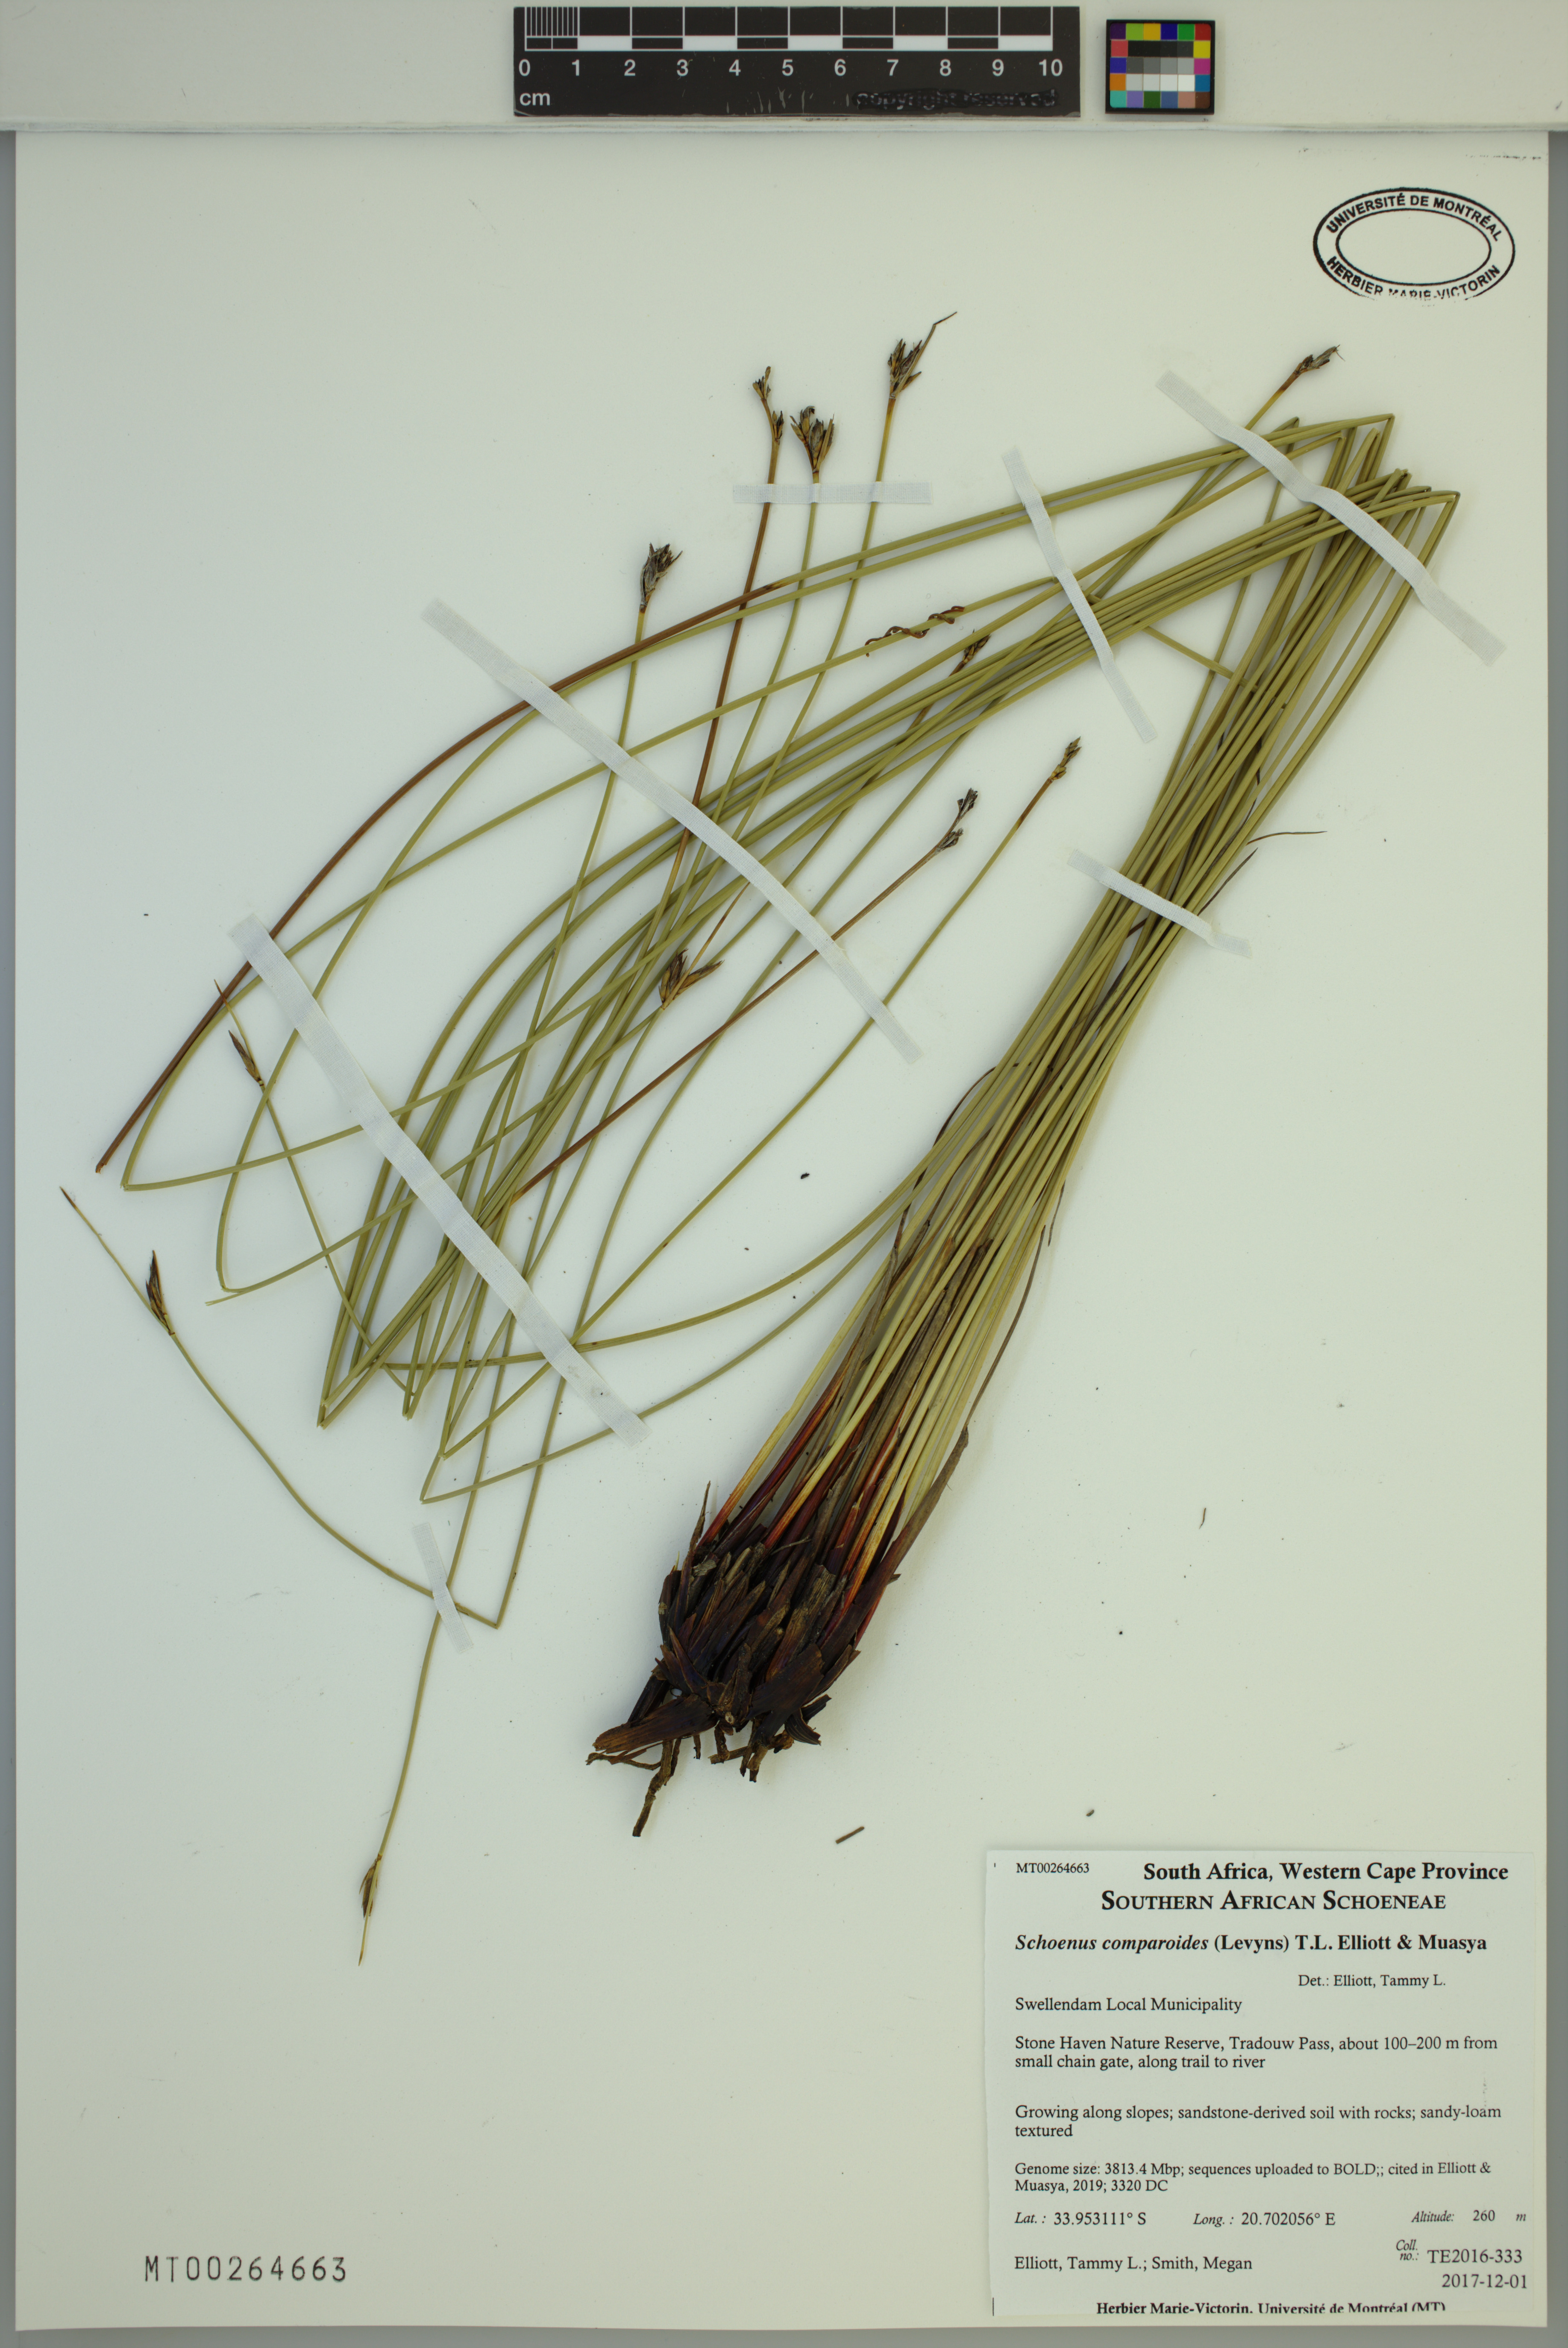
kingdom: Plantae
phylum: Tracheophyta
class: Liliopsida
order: Poales
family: Cyperaceae
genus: Schoenus
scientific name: Schoenus comparoides
